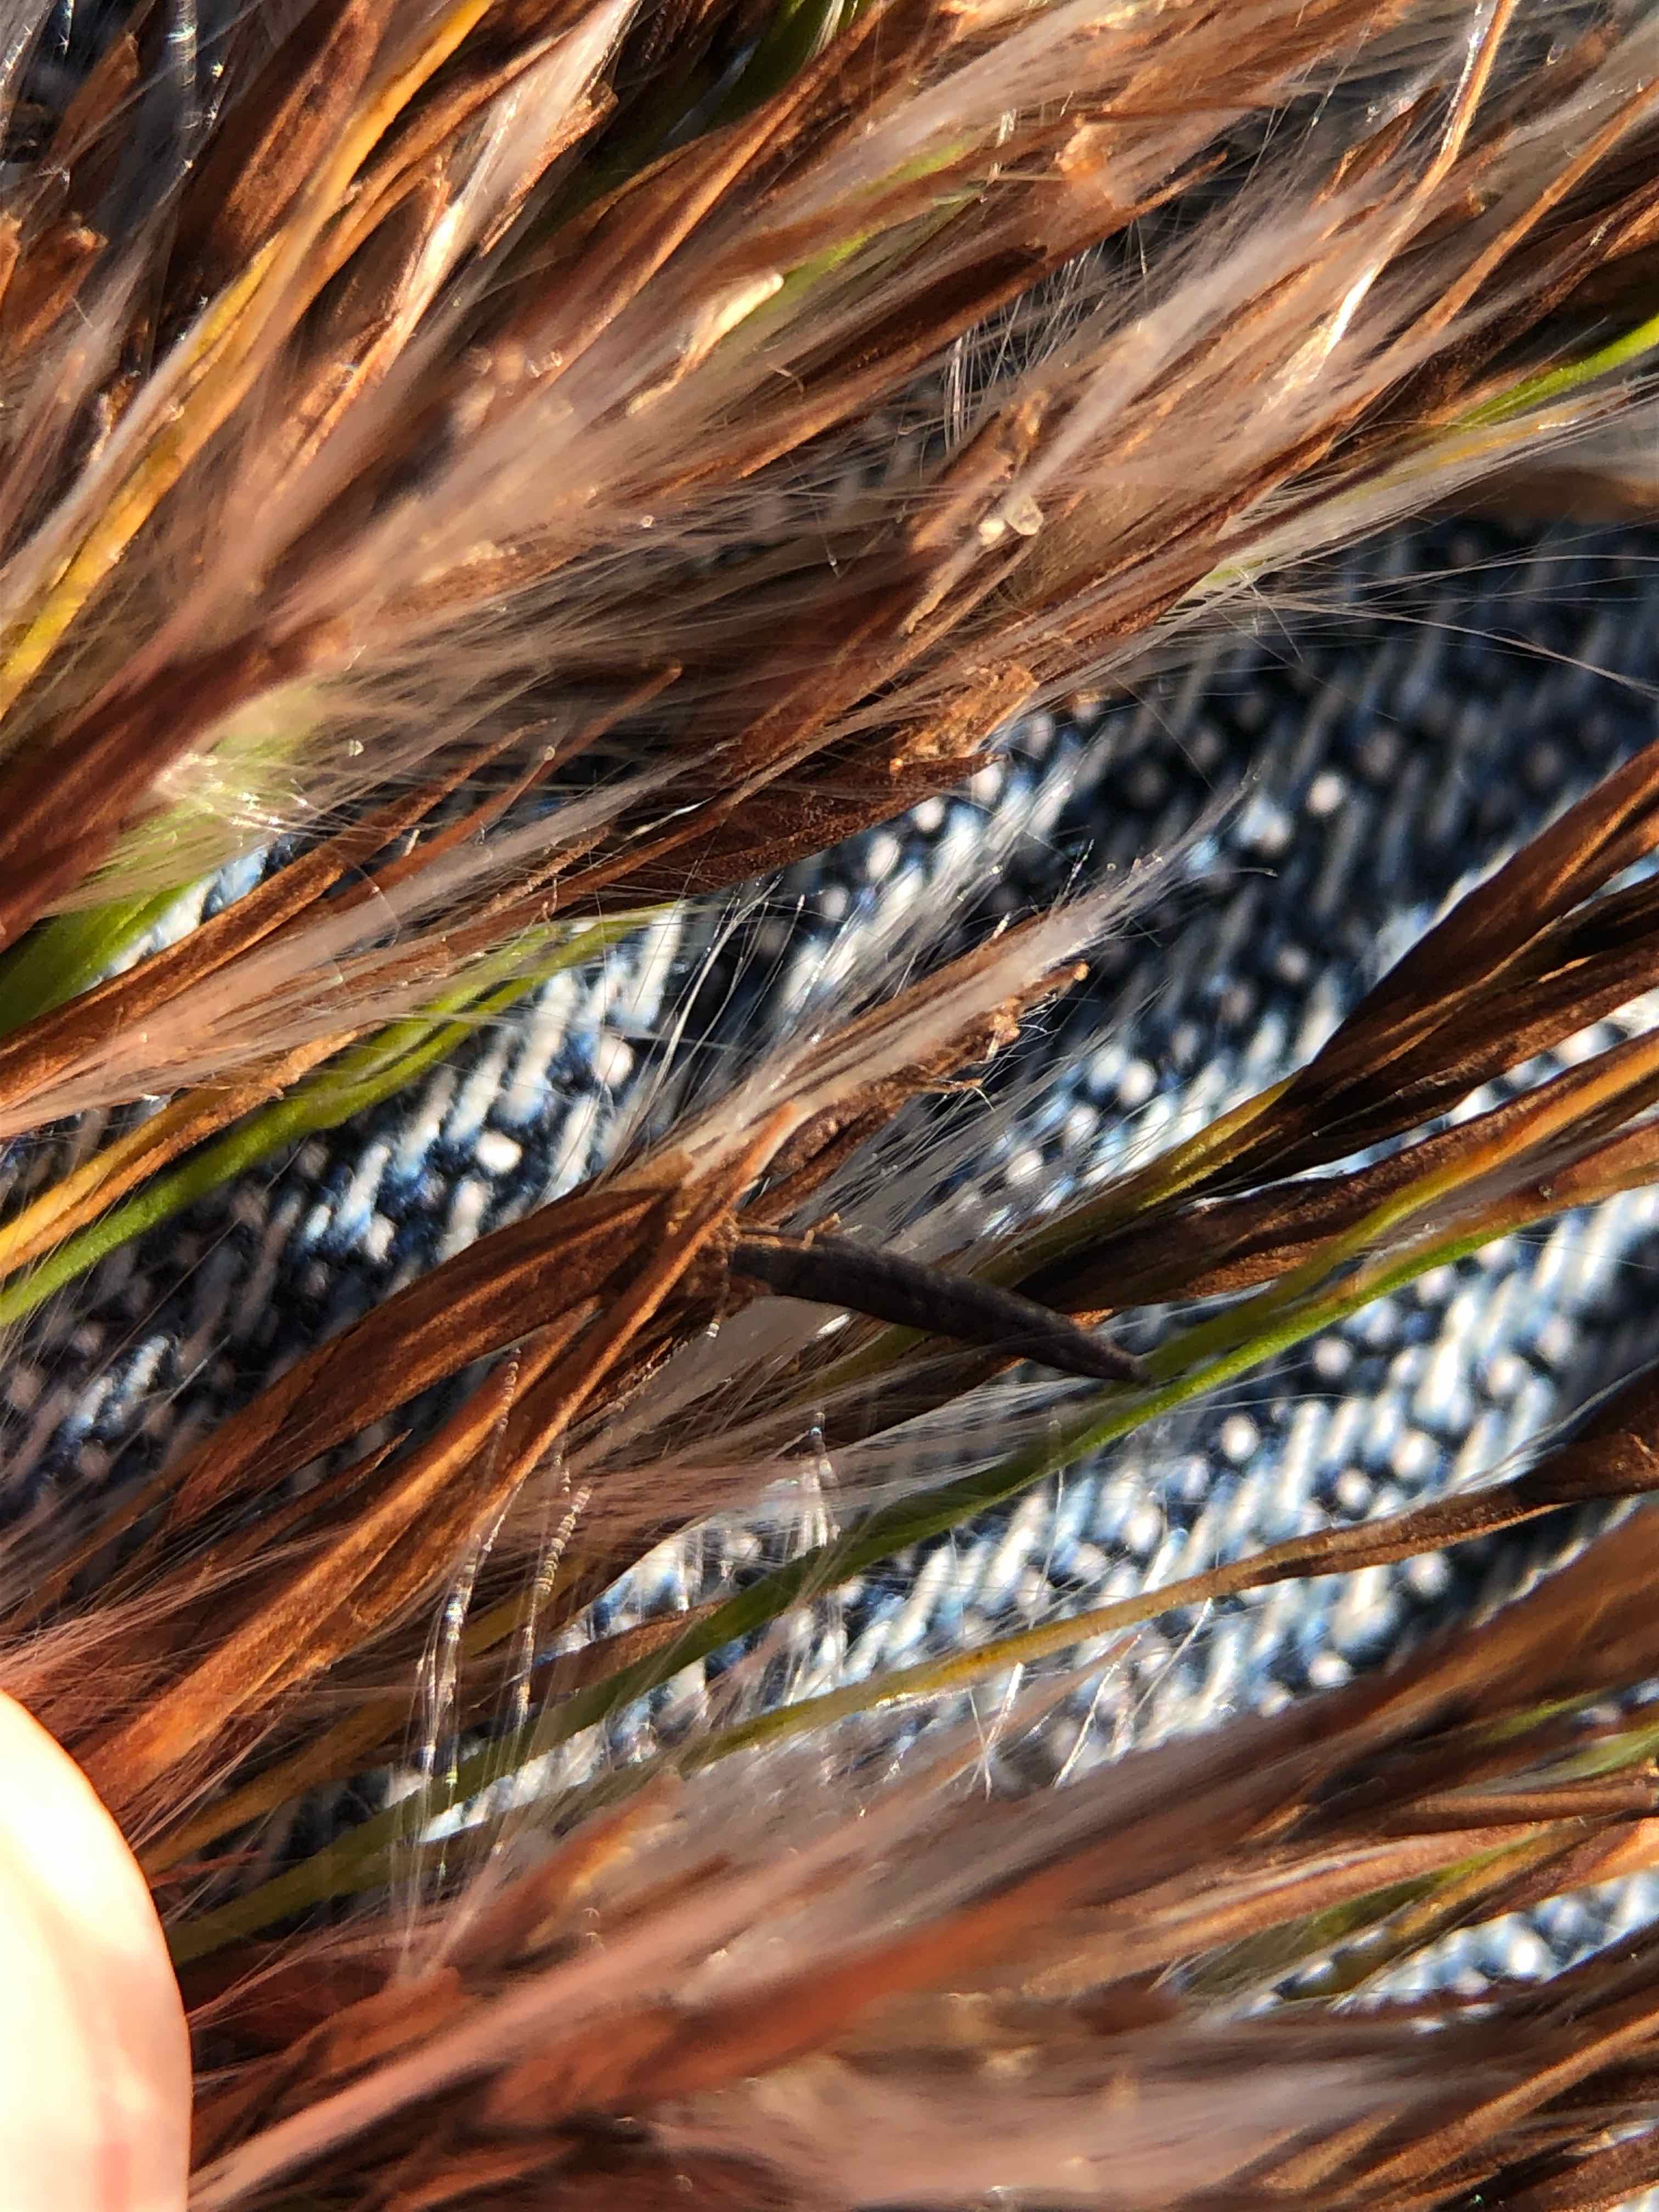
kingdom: Fungi
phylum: Ascomycota
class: Sordariomycetes
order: Hypocreales
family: Clavicipitaceae
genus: Claviceps
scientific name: Claviceps purpurea
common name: almindelig meldrøjer
